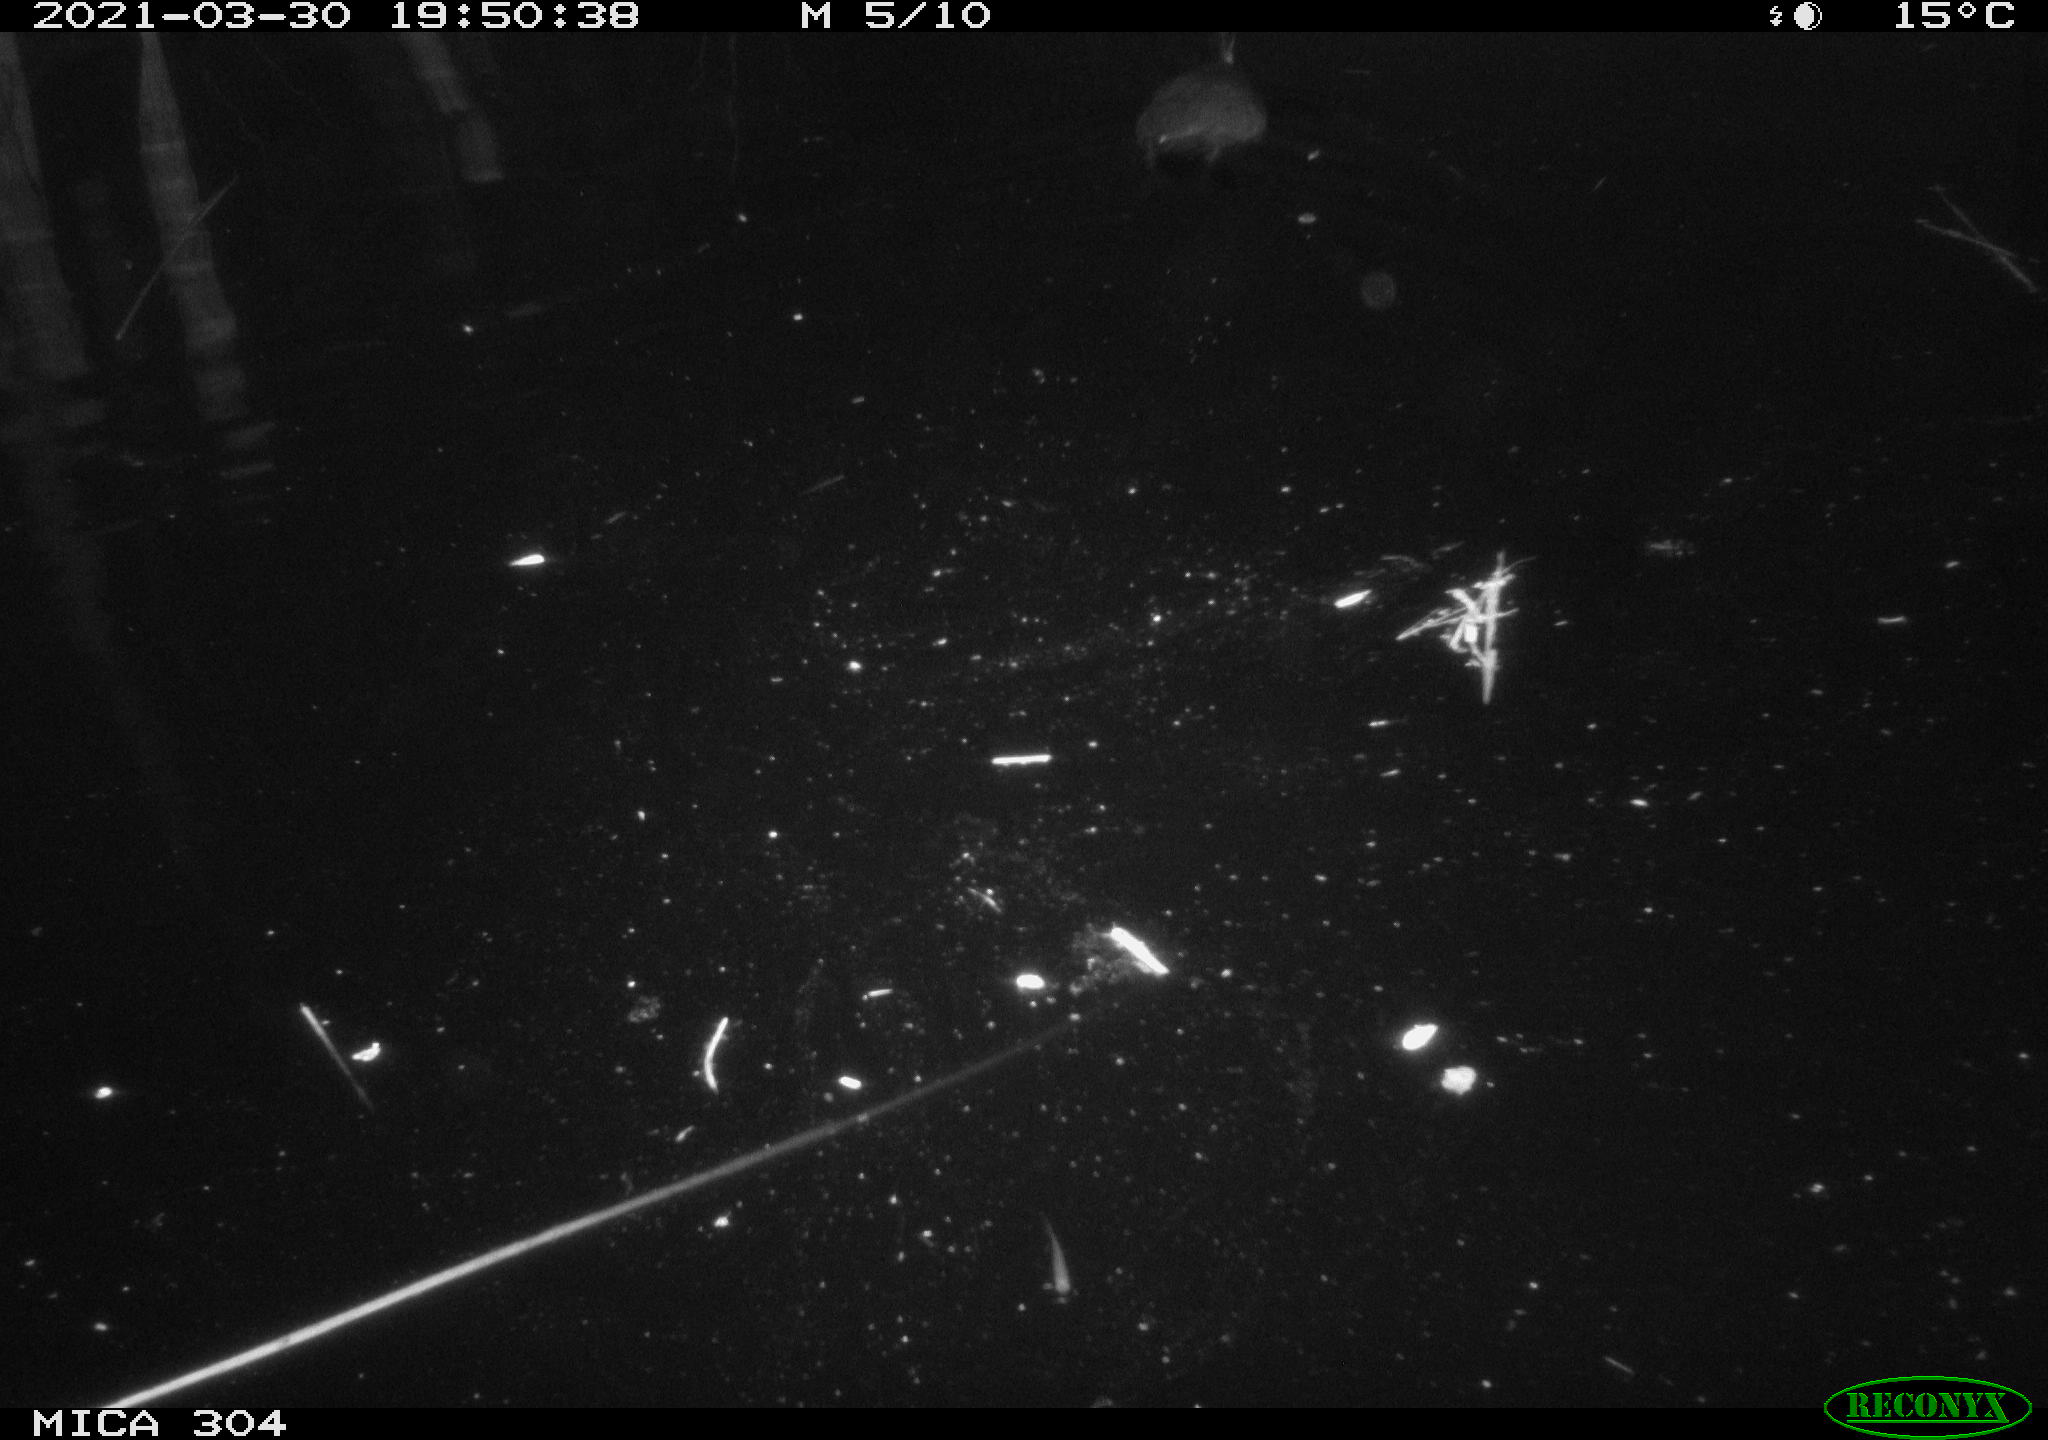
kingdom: Animalia
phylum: Chordata
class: Aves
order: Gruiformes
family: Rallidae
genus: Fulica
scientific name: Fulica atra
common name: Eurasian coot
